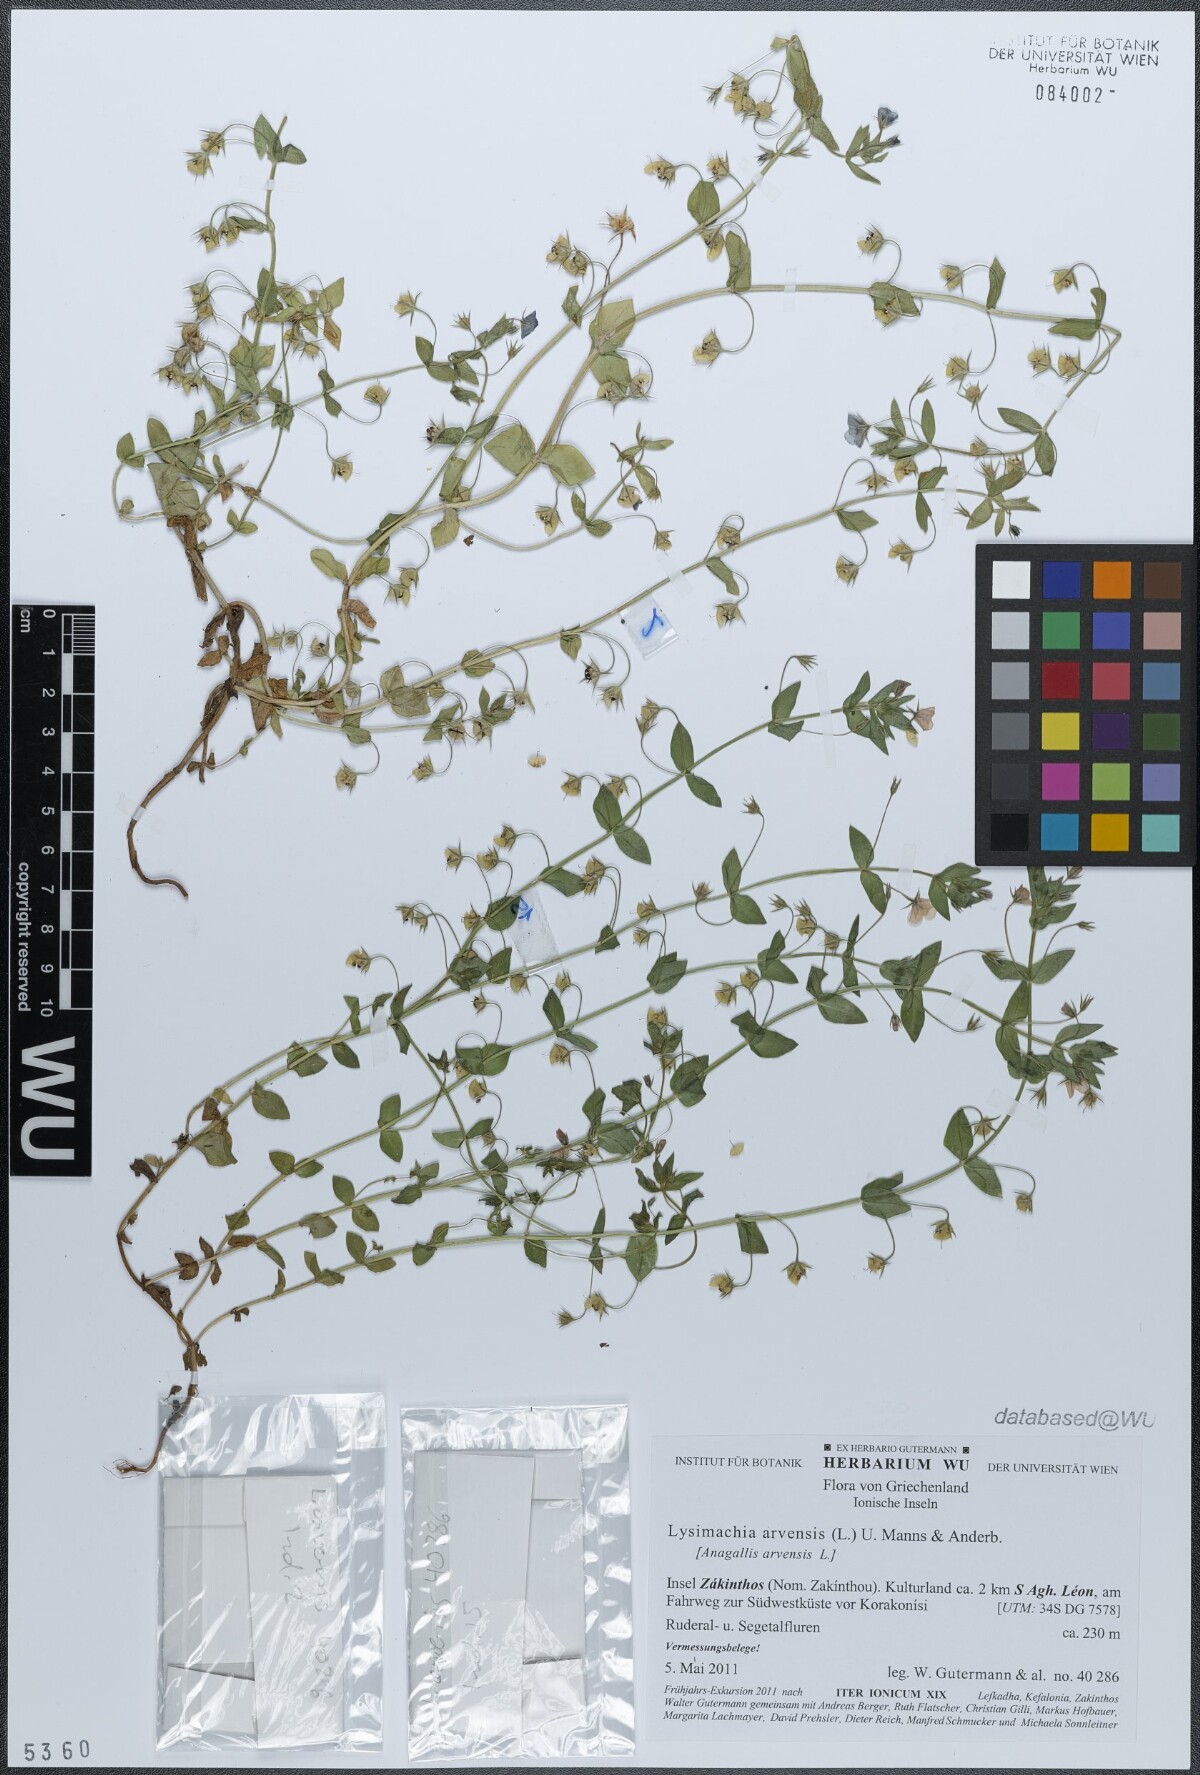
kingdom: Plantae
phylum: Tracheophyta
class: Magnoliopsida
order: Ericales
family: Primulaceae
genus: Lysimachia
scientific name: Lysimachia arvensis
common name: Scarlet pimpernel
